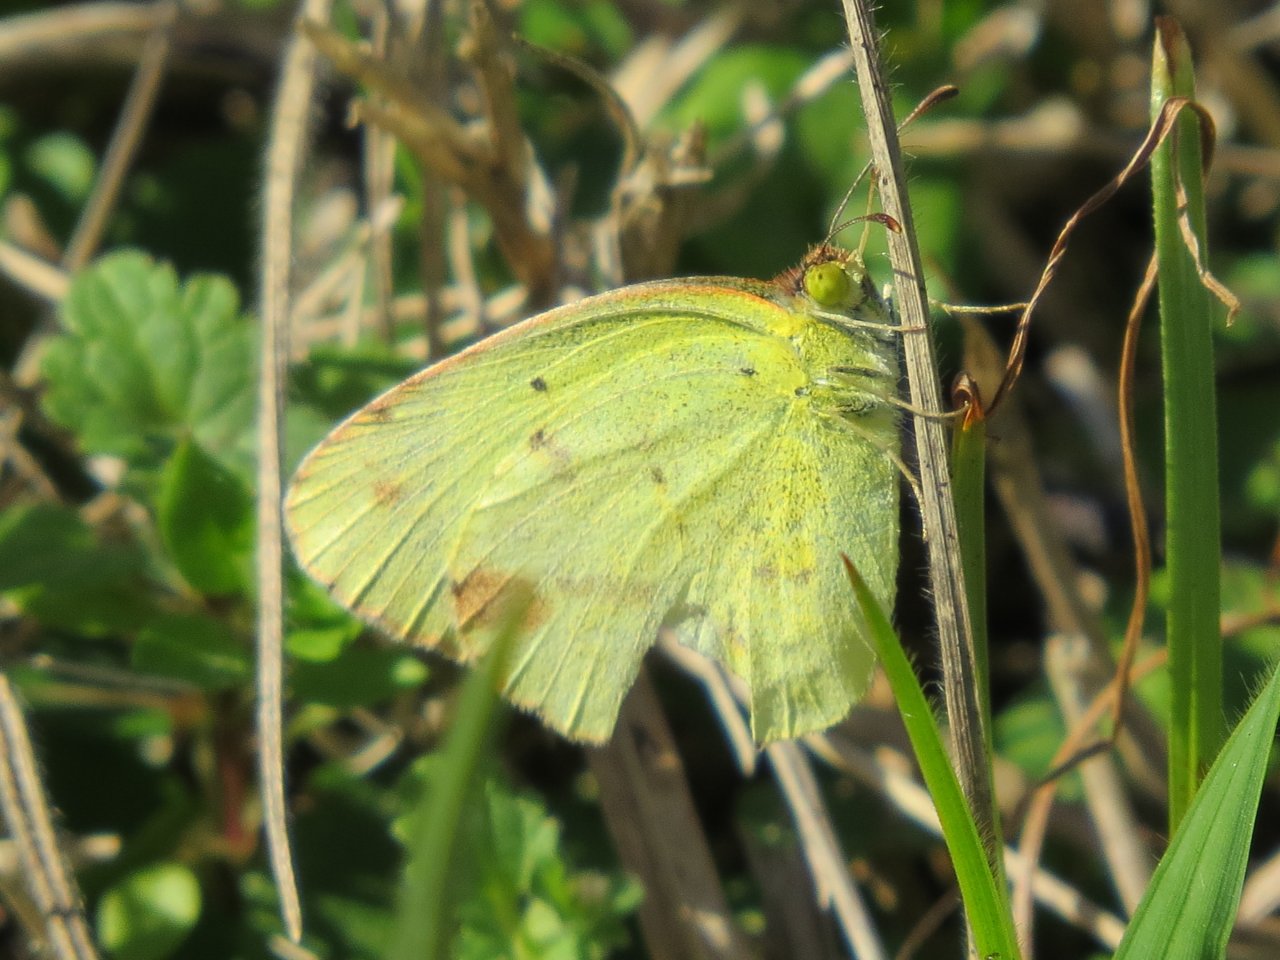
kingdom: Animalia
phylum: Arthropoda
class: Insecta
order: Lepidoptera
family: Pieridae
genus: Pyrisitia
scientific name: Pyrisitia lisa
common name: Little Yellow
